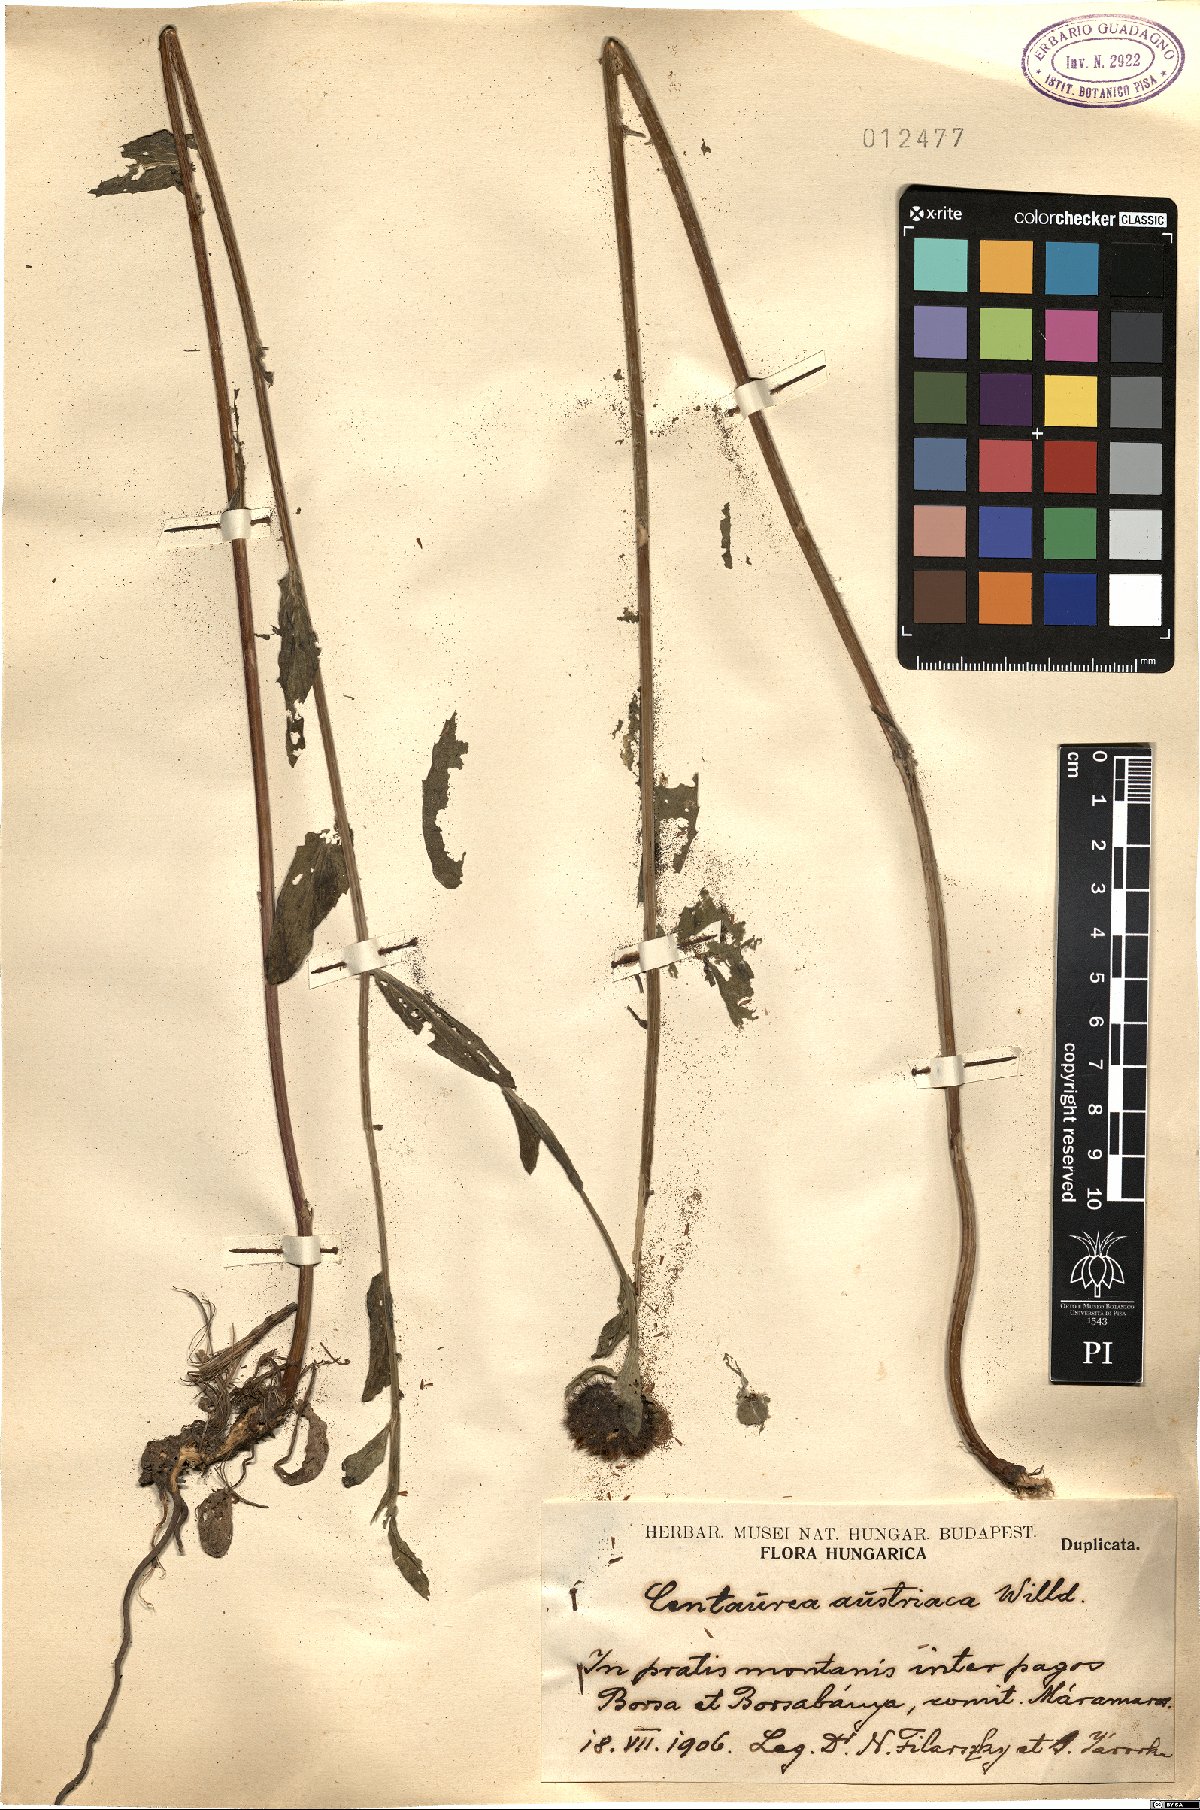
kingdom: Plantae
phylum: Tracheophyta
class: Magnoliopsida
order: Asterales
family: Asteraceae
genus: Centaurea
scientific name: Centaurea phrygia
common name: Wig knapweed
